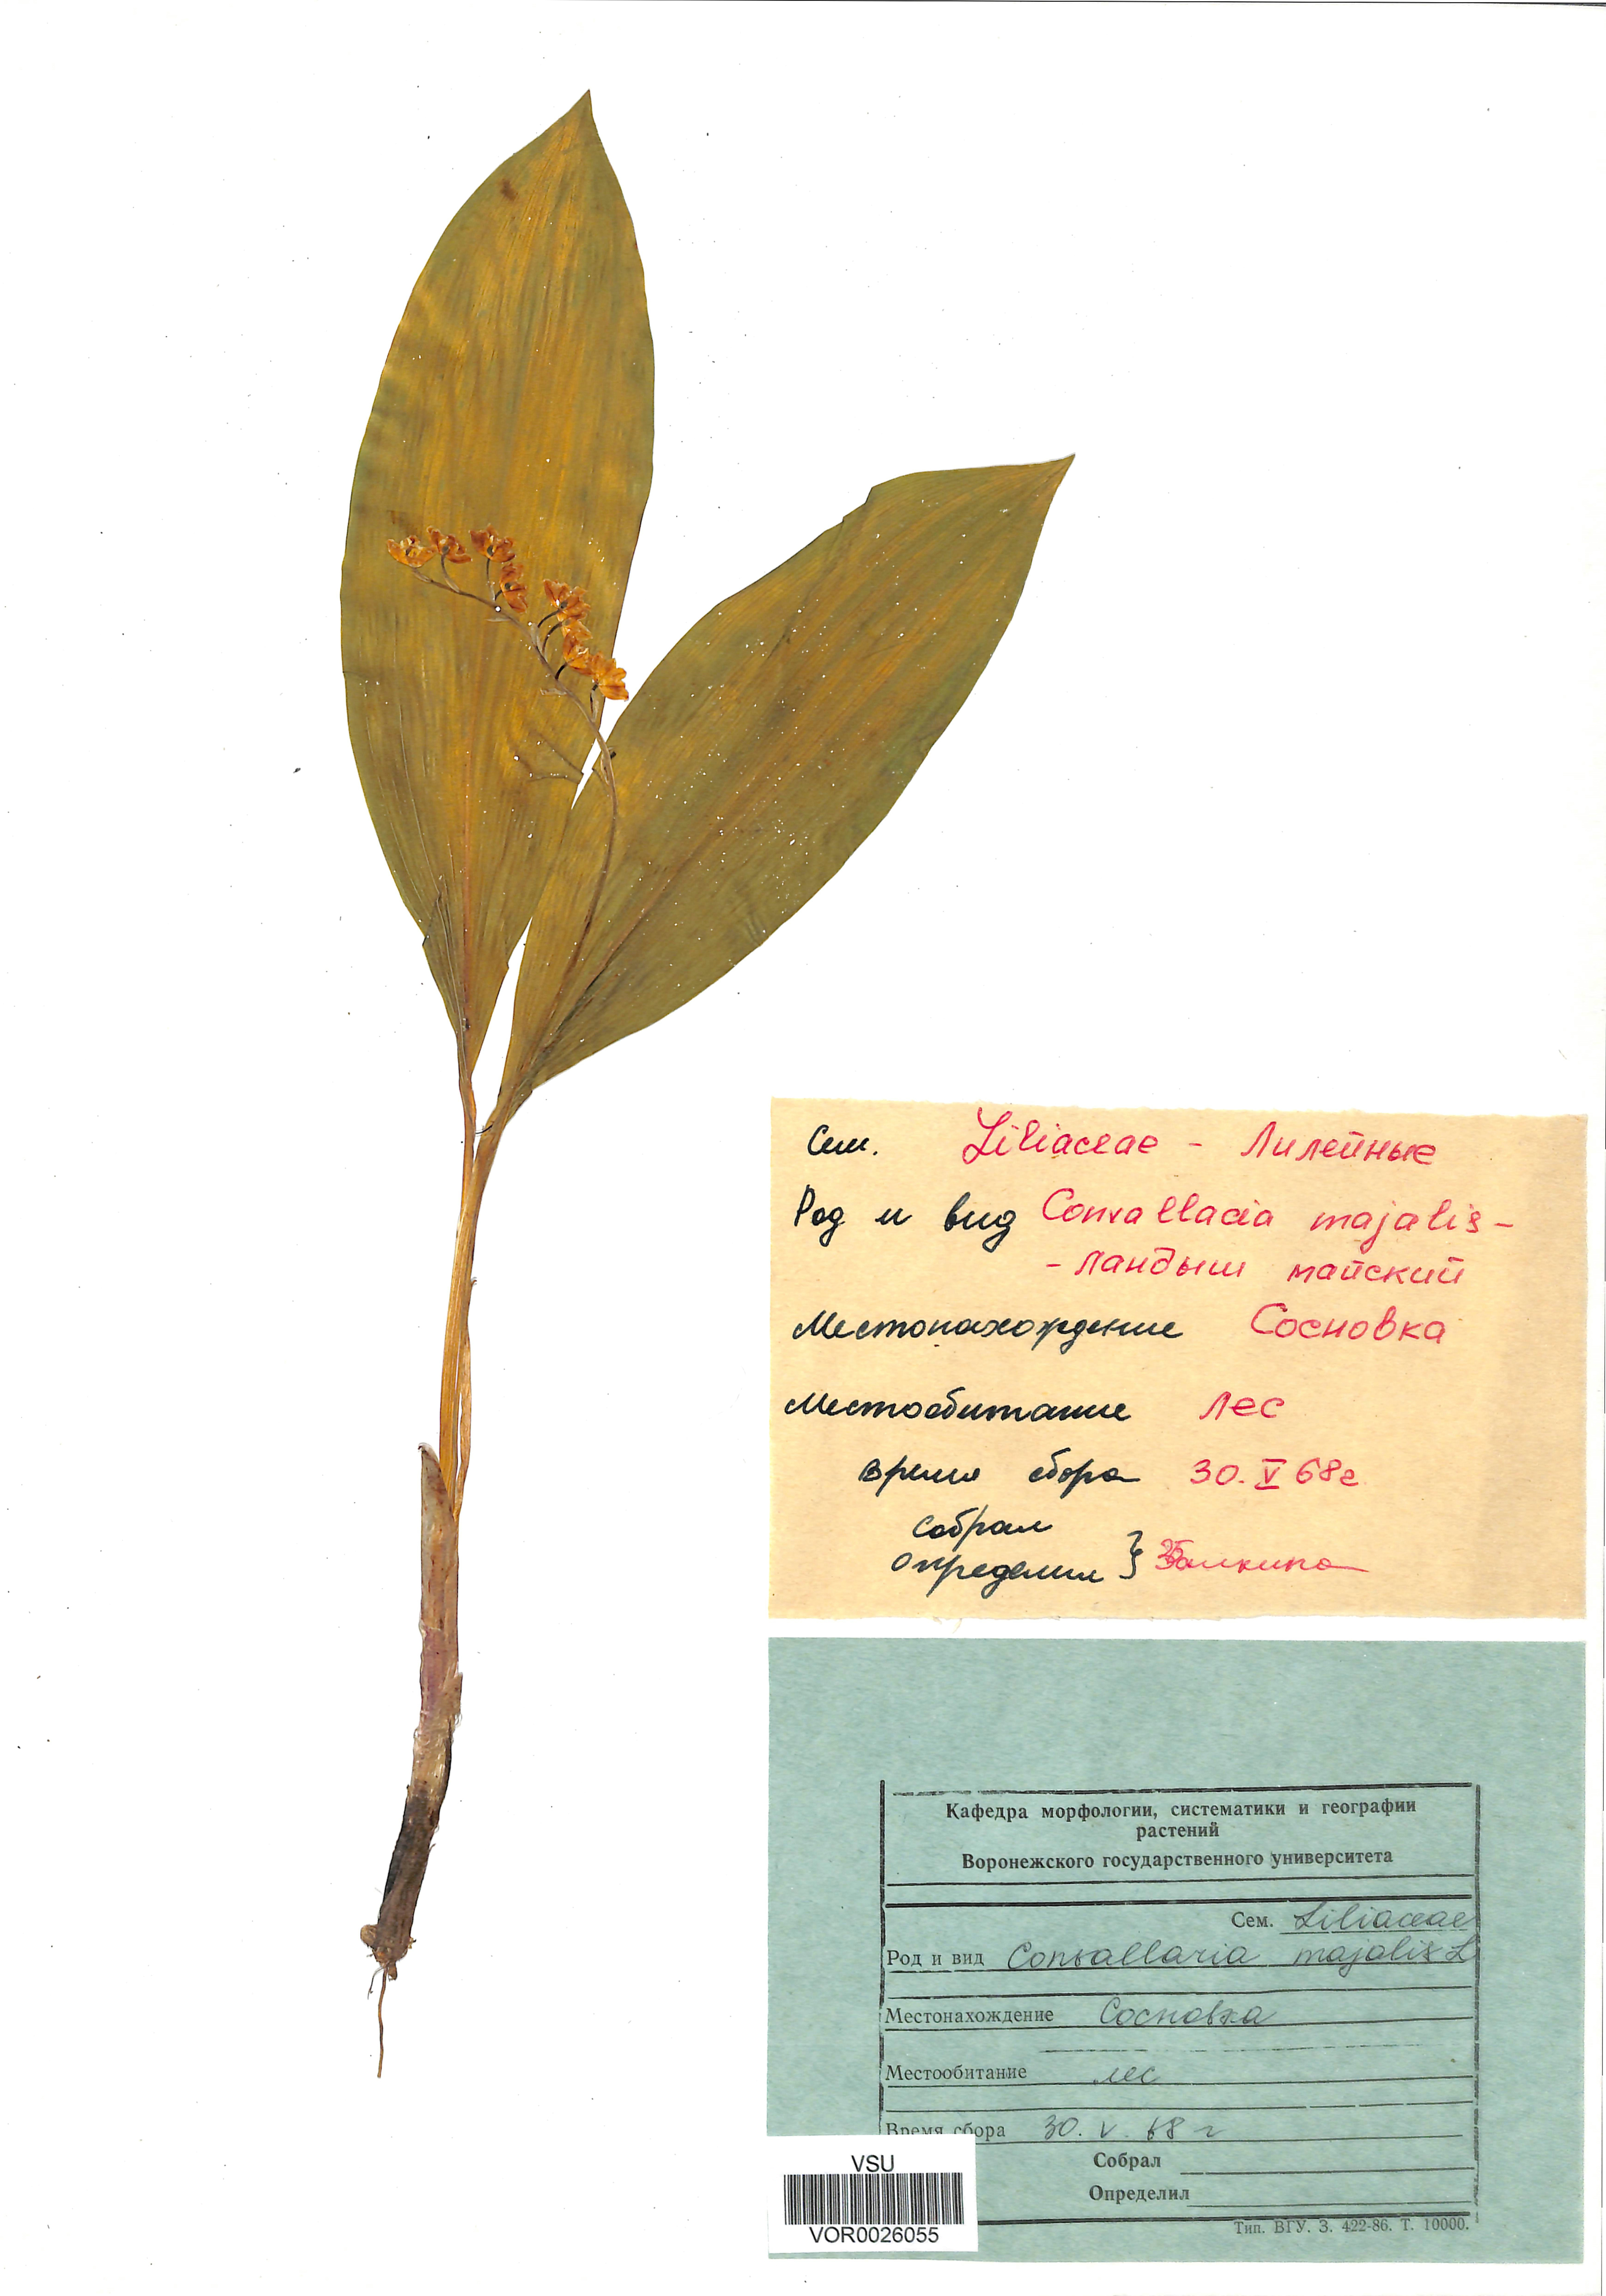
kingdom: Plantae
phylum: Tracheophyta
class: Liliopsida
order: Asparagales
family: Asparagaceae
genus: Convallaria
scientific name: Convallaria majalis
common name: Lily-of-the-valley
